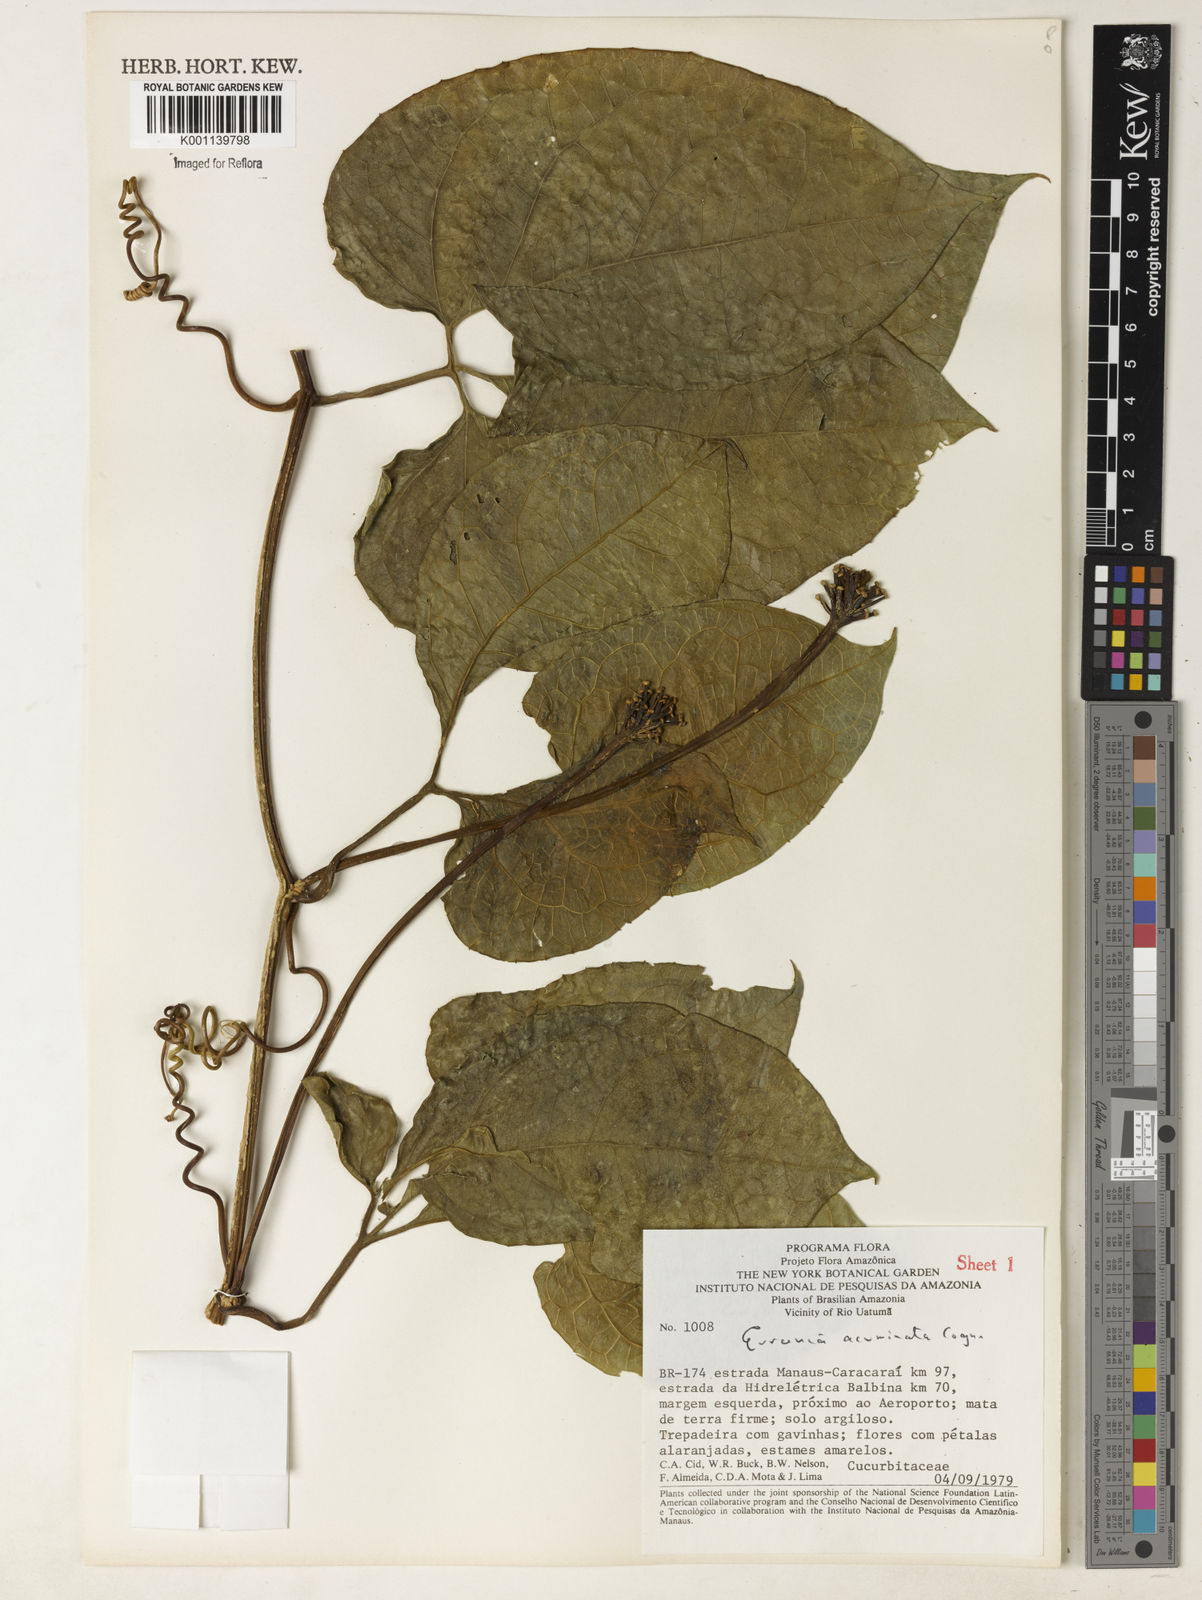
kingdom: Plantae
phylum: Tracheophyta
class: Magnoliopsida
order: Cucurbitales
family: Cucurbitaceae
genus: Gurania
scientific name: Gurania acuminata
